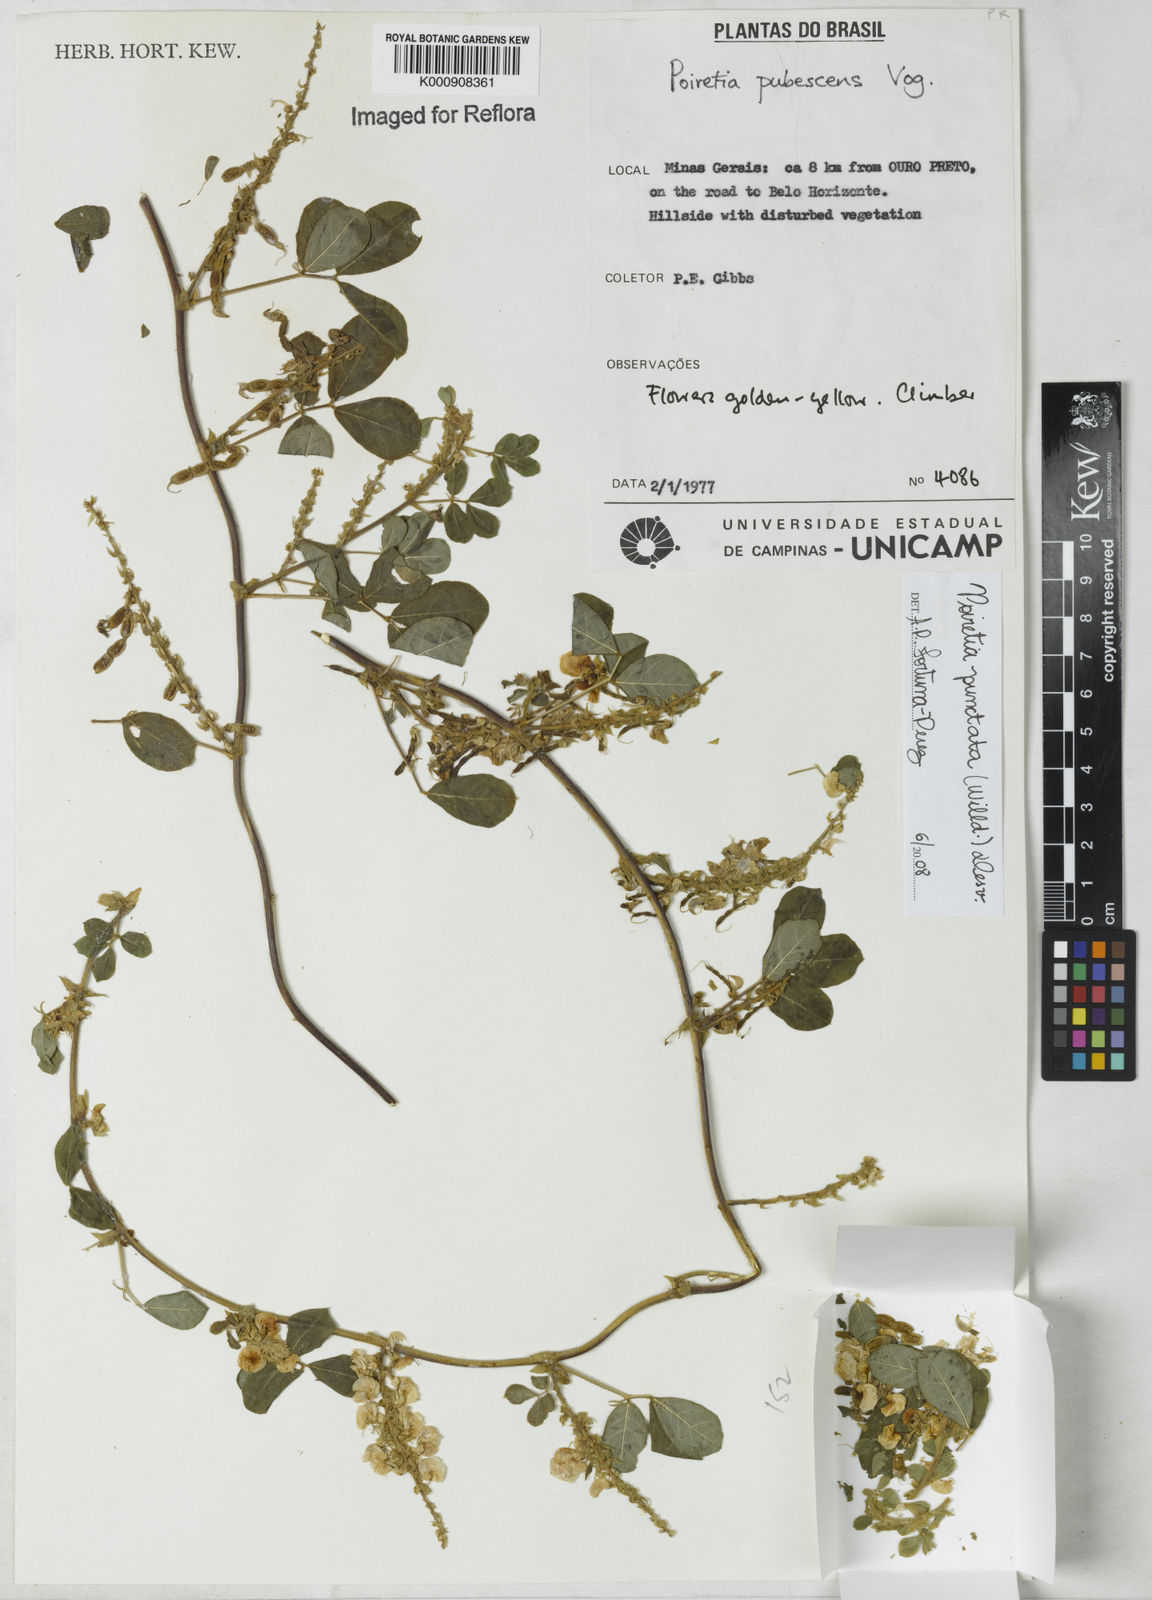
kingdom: Plantae
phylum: Tracheophyta
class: Magnoliopsida
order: Fabales
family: Fabaceae
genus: Poiretia
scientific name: Poiretia punctata
